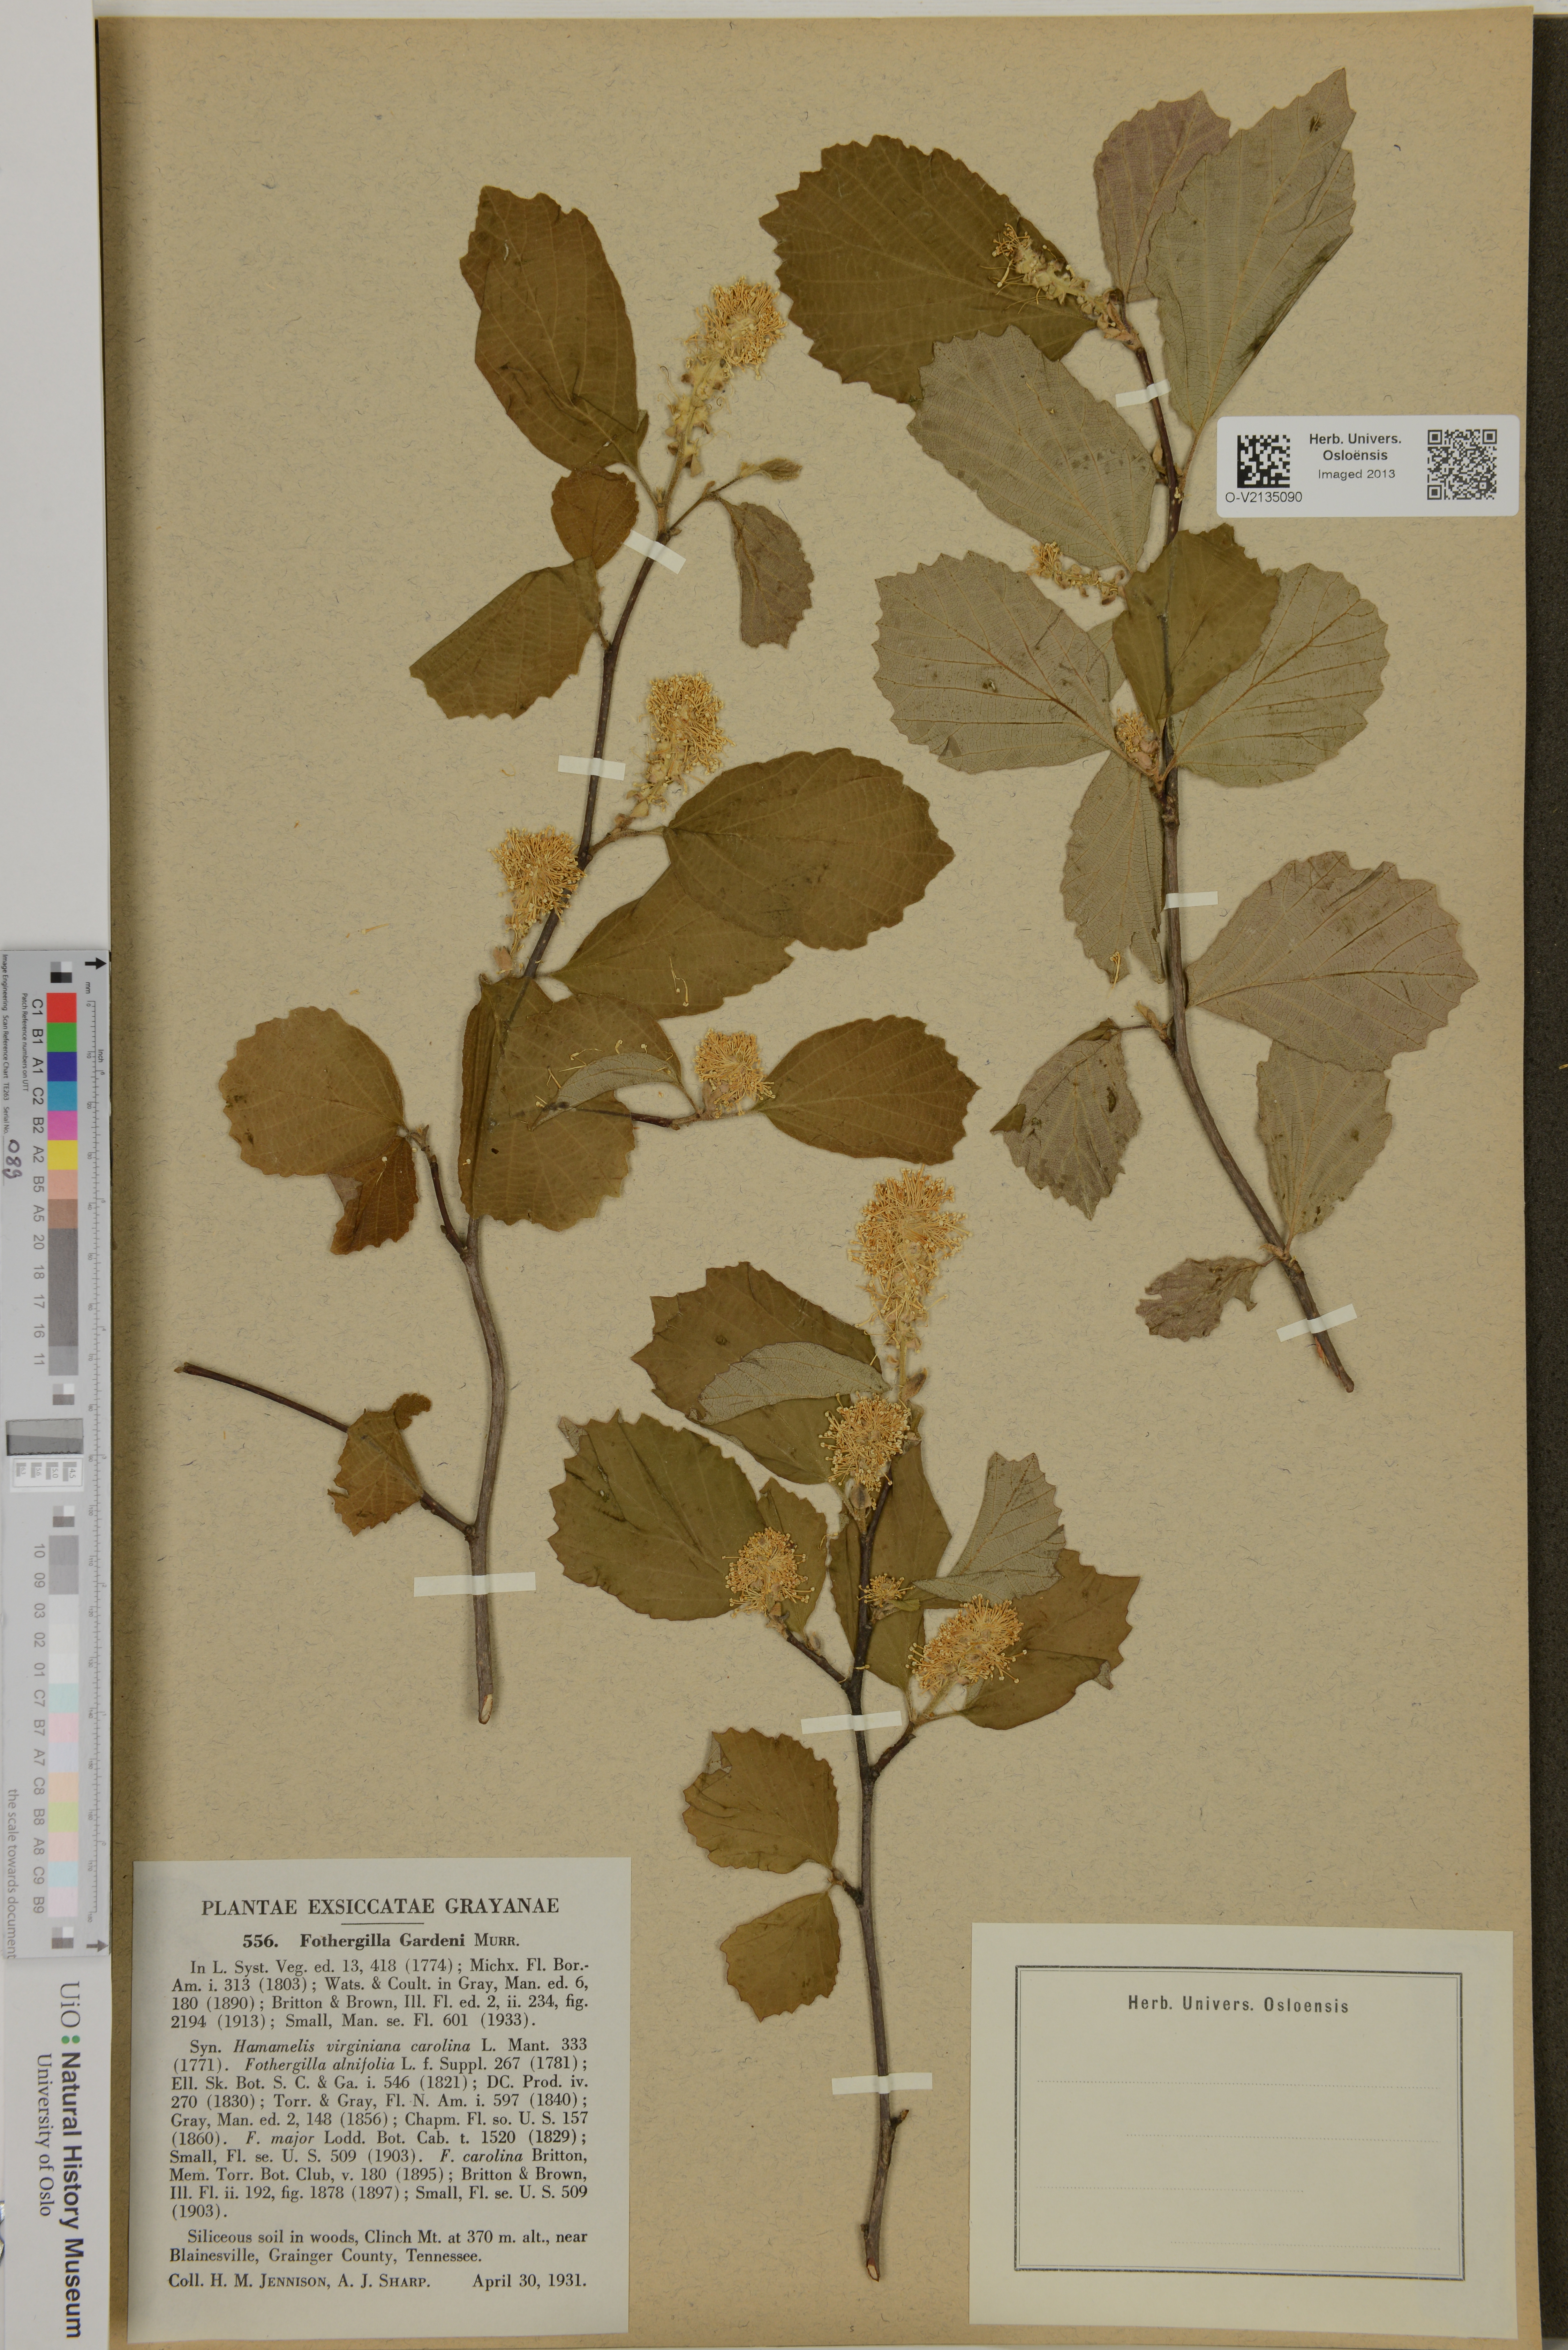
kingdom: Plantae
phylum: Tracheophyta
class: Magnoliopsida
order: Saxifragales
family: Hamamelidaceae
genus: Fothergilla
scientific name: Fothergilla gardenii
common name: Dwarf witch-alder
